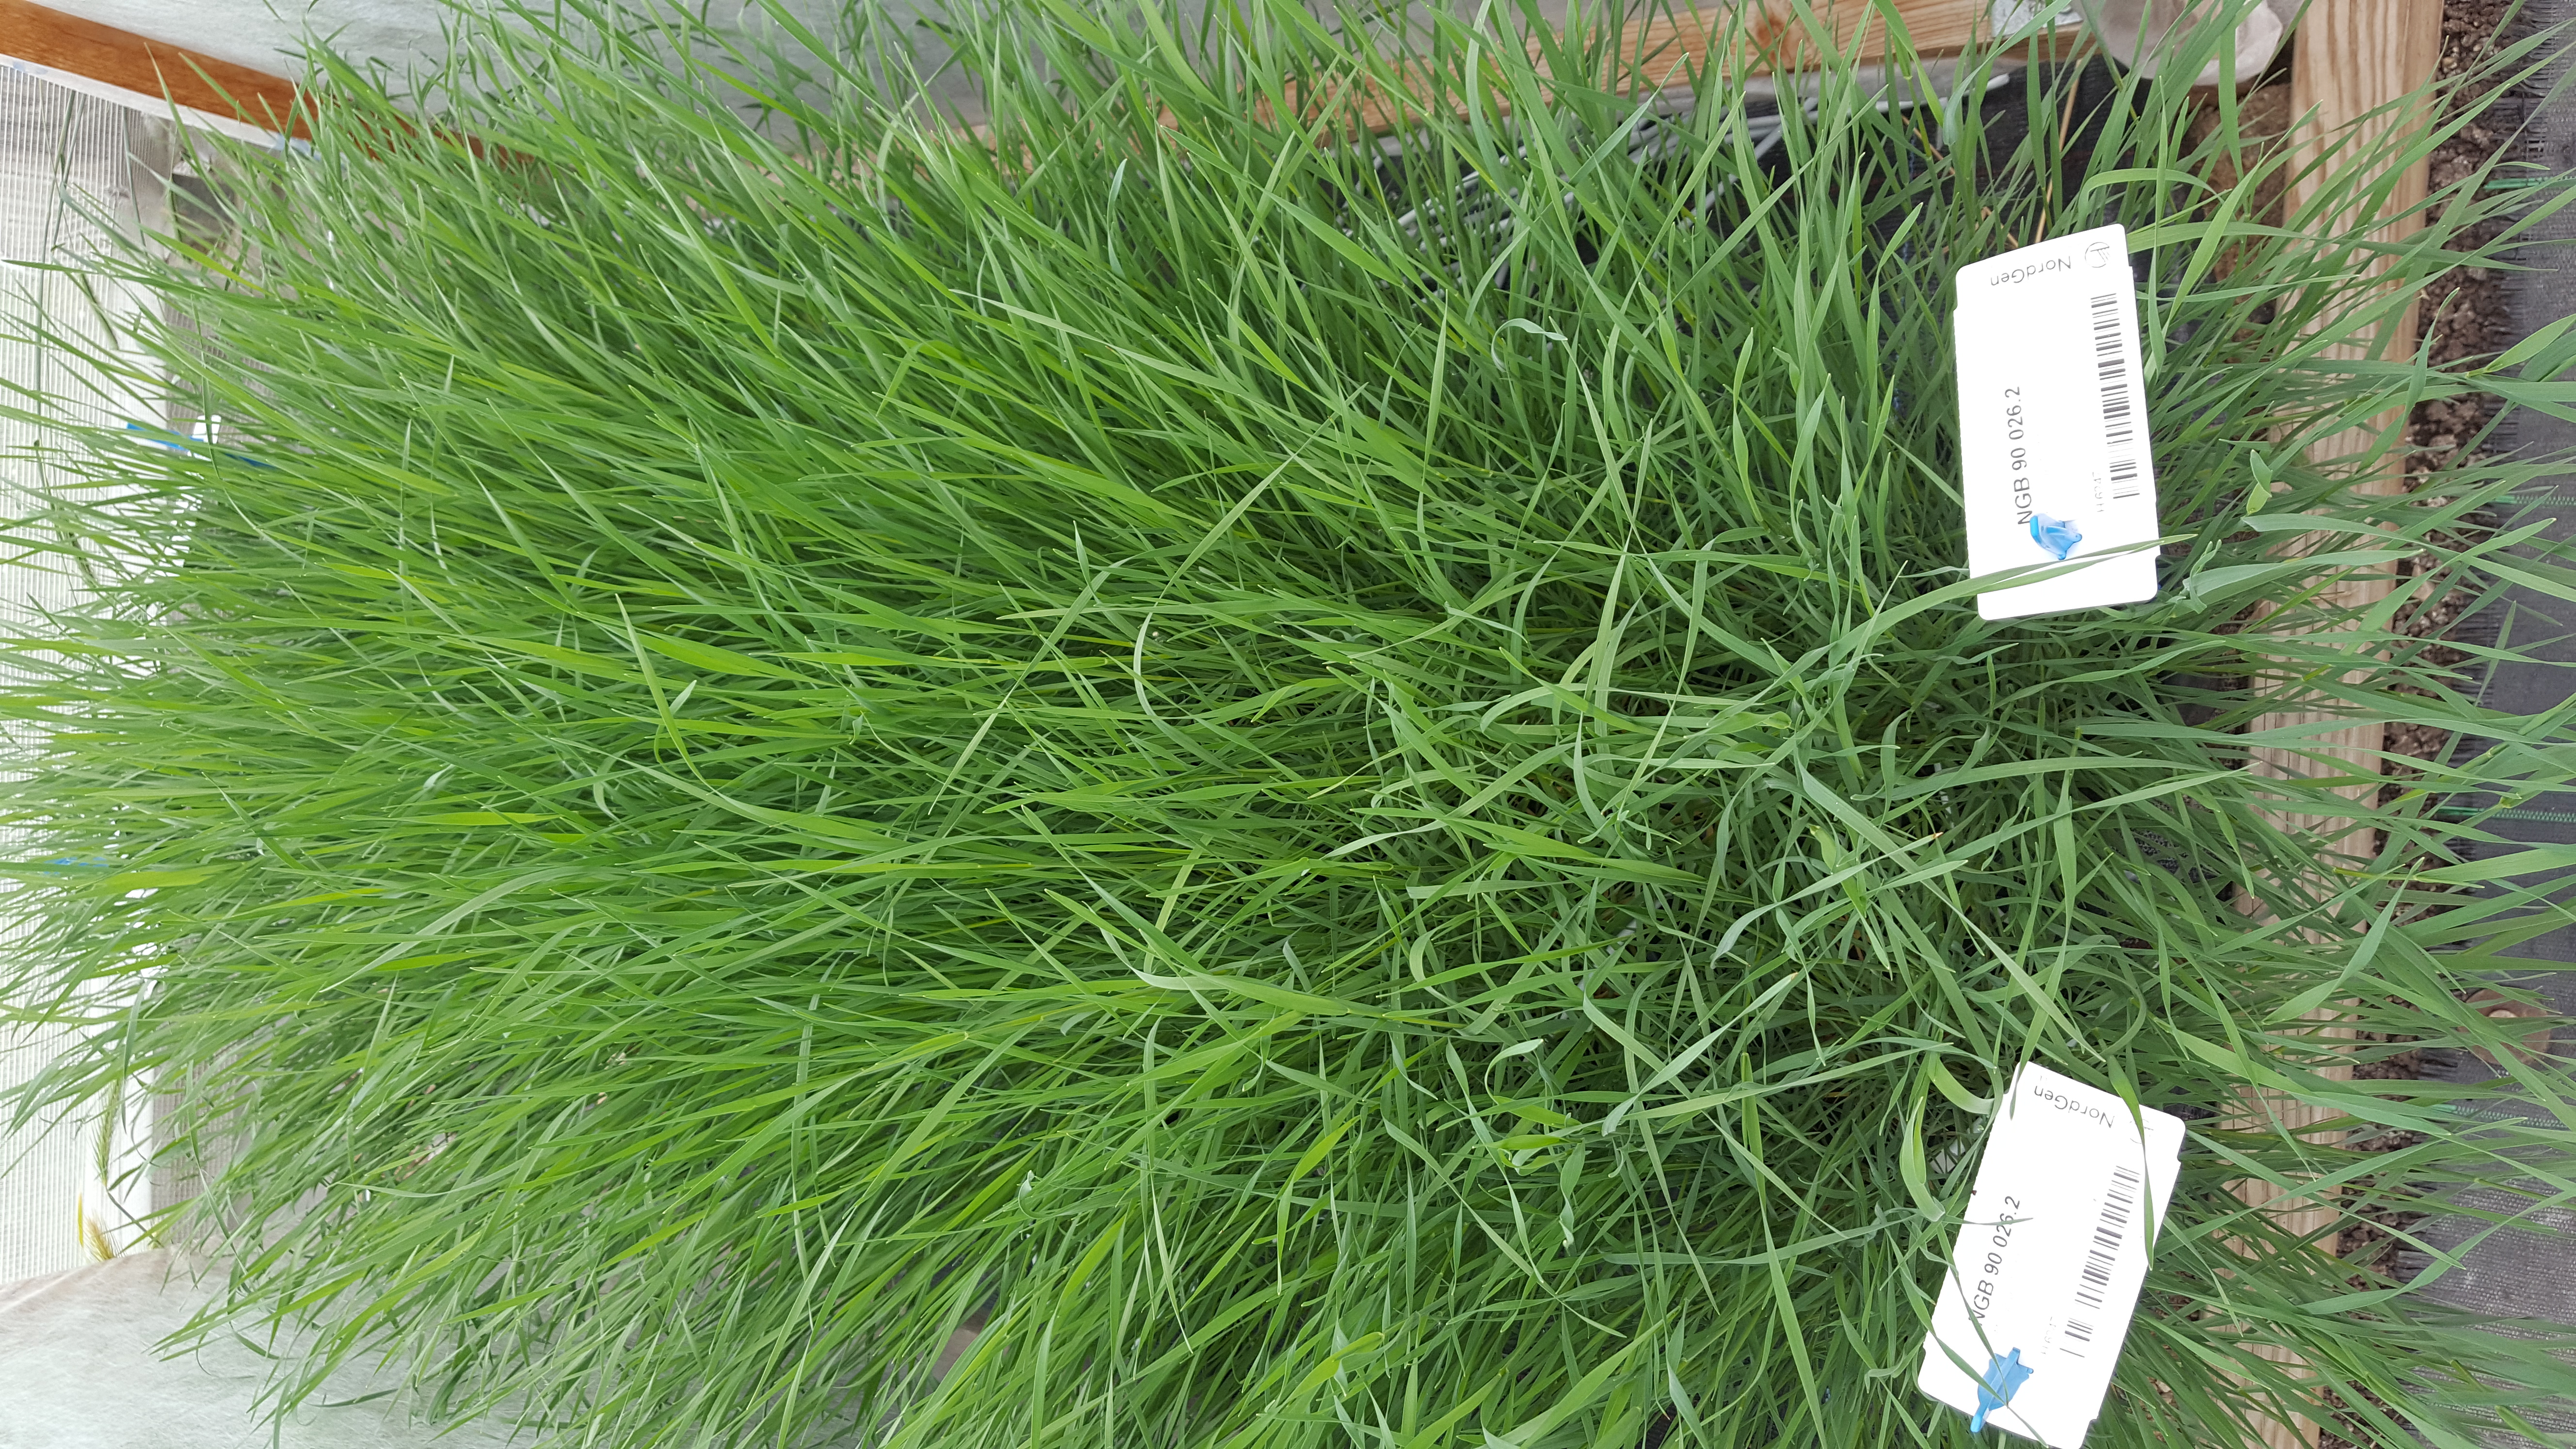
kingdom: Plantae
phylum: Tracheophyta
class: Liliopsida
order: Poales
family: Poaceae
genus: Hordeum
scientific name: Hordeum lechleri
